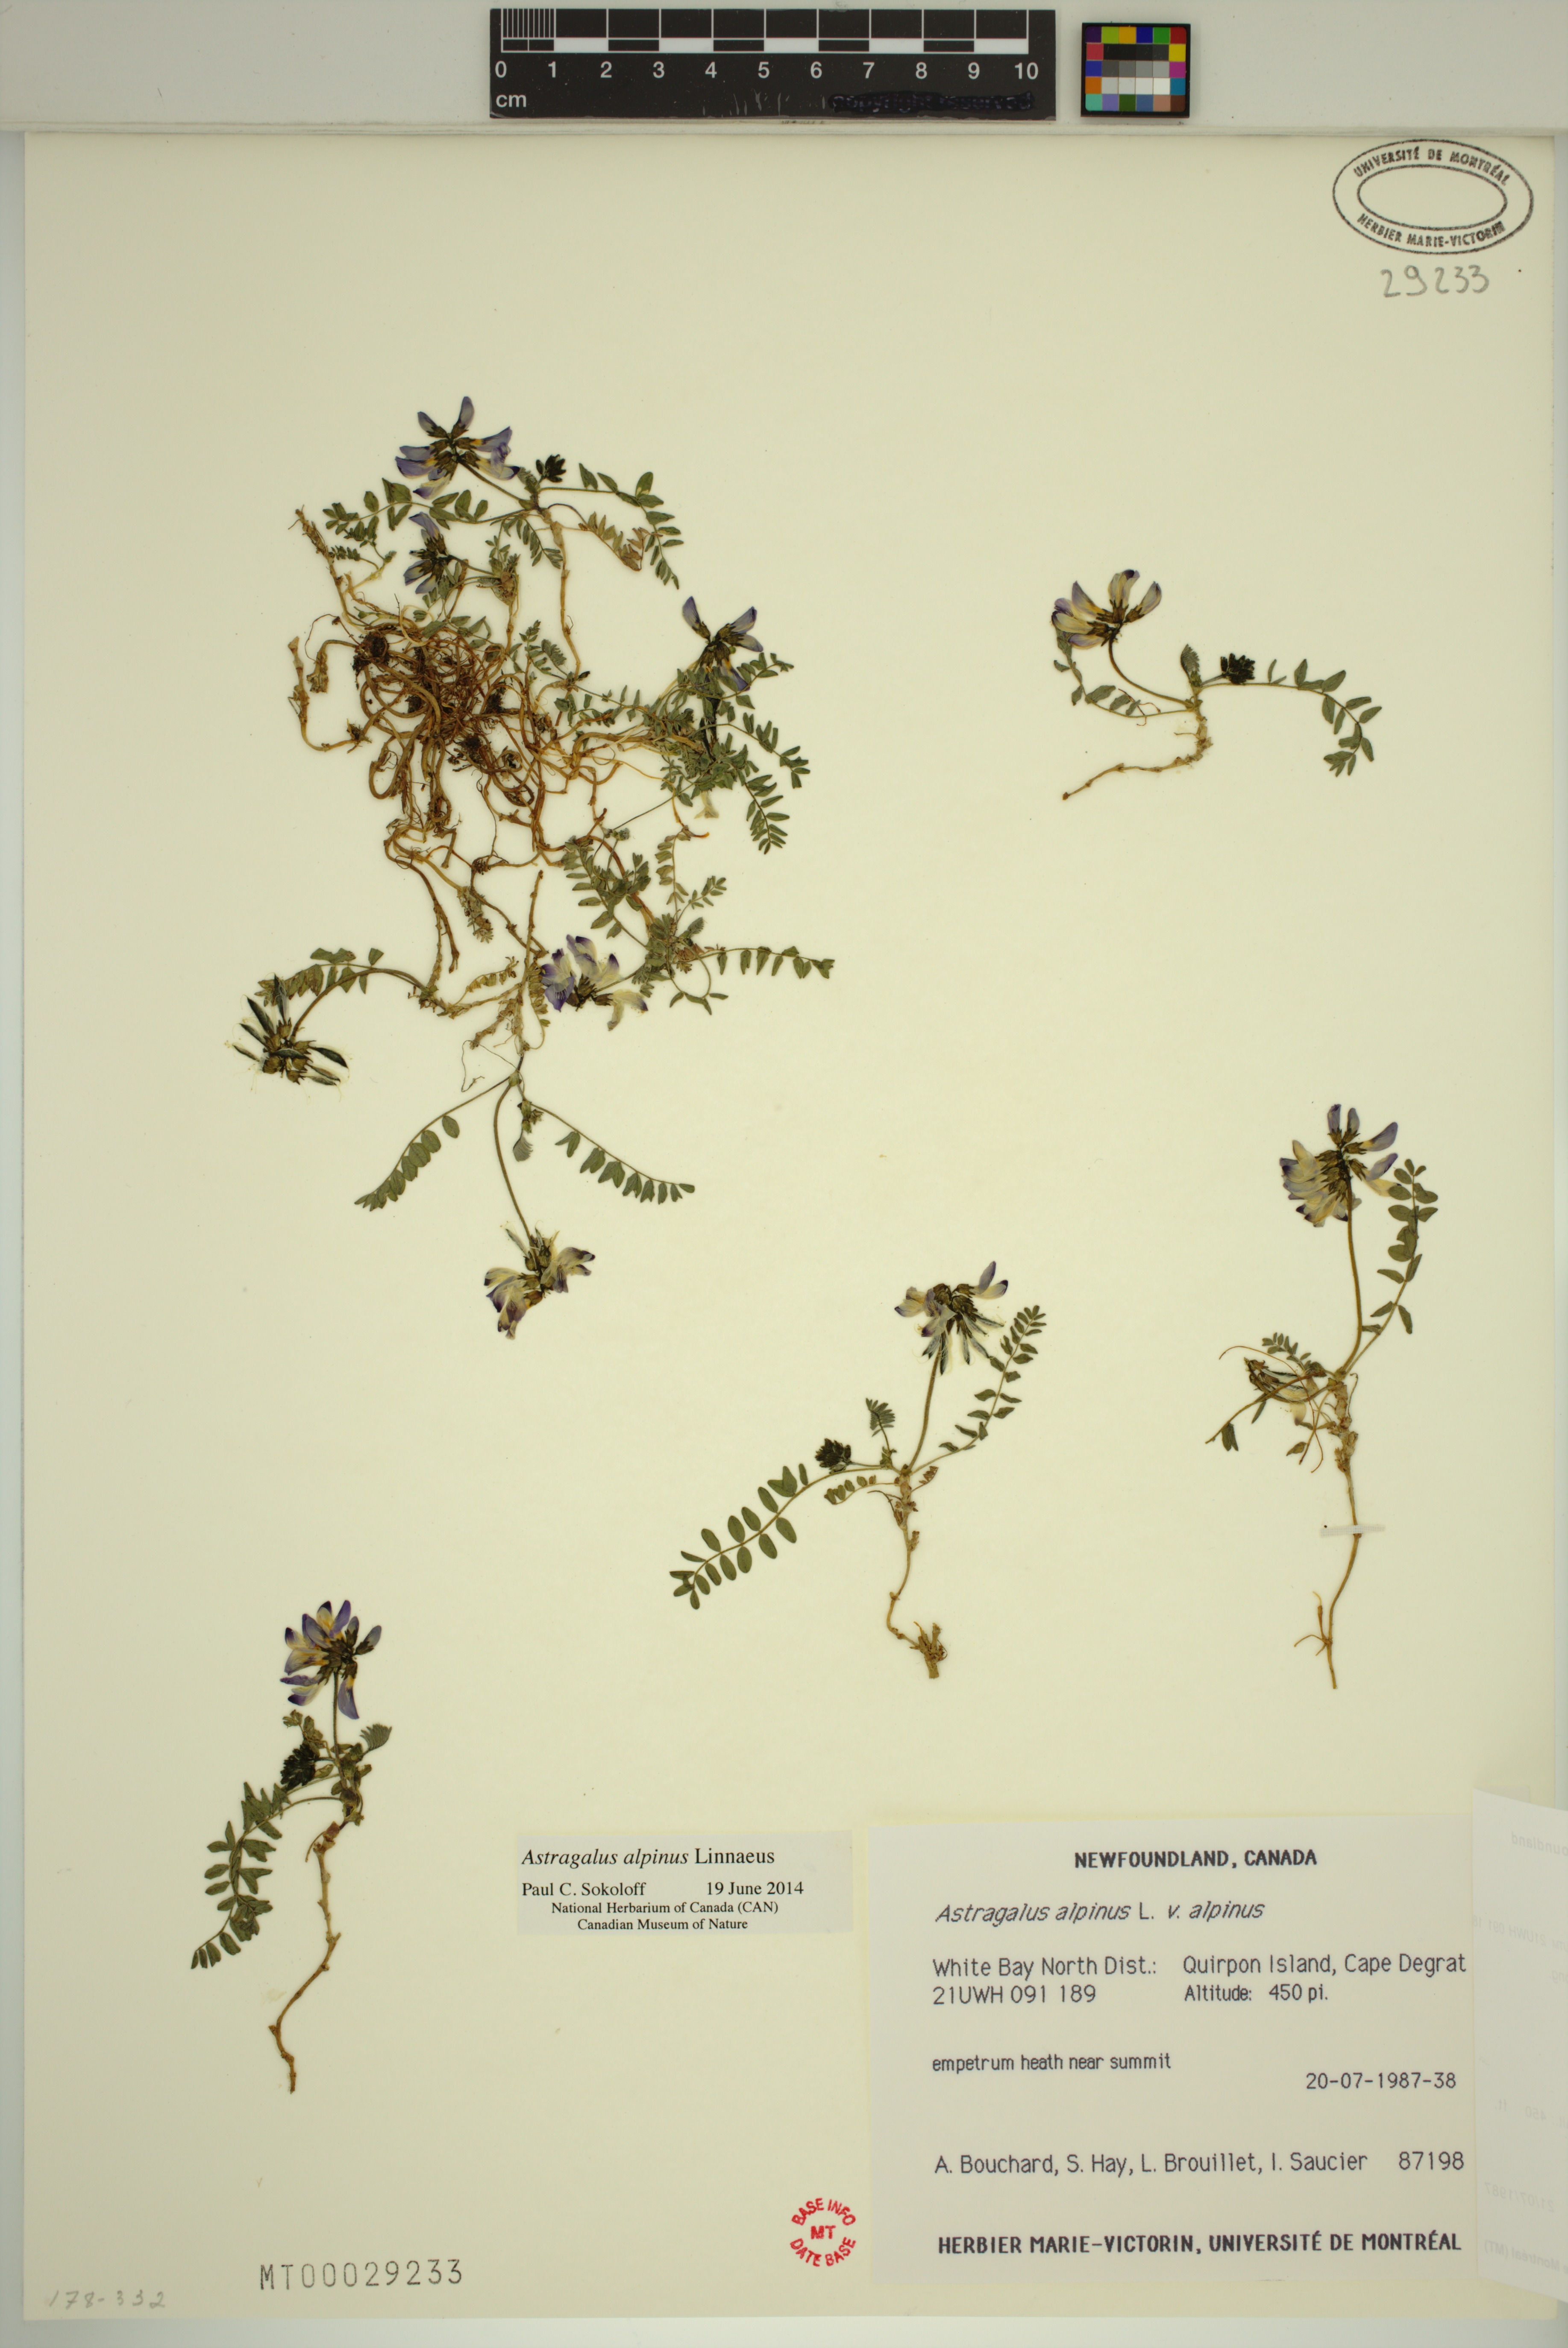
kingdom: Plantae
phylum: Tracheophyta
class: Magnoliopsida
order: Fabales
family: Fabaceae
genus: Astragalus
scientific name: Astragalus alpinus
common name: Alpine milk-vetch
